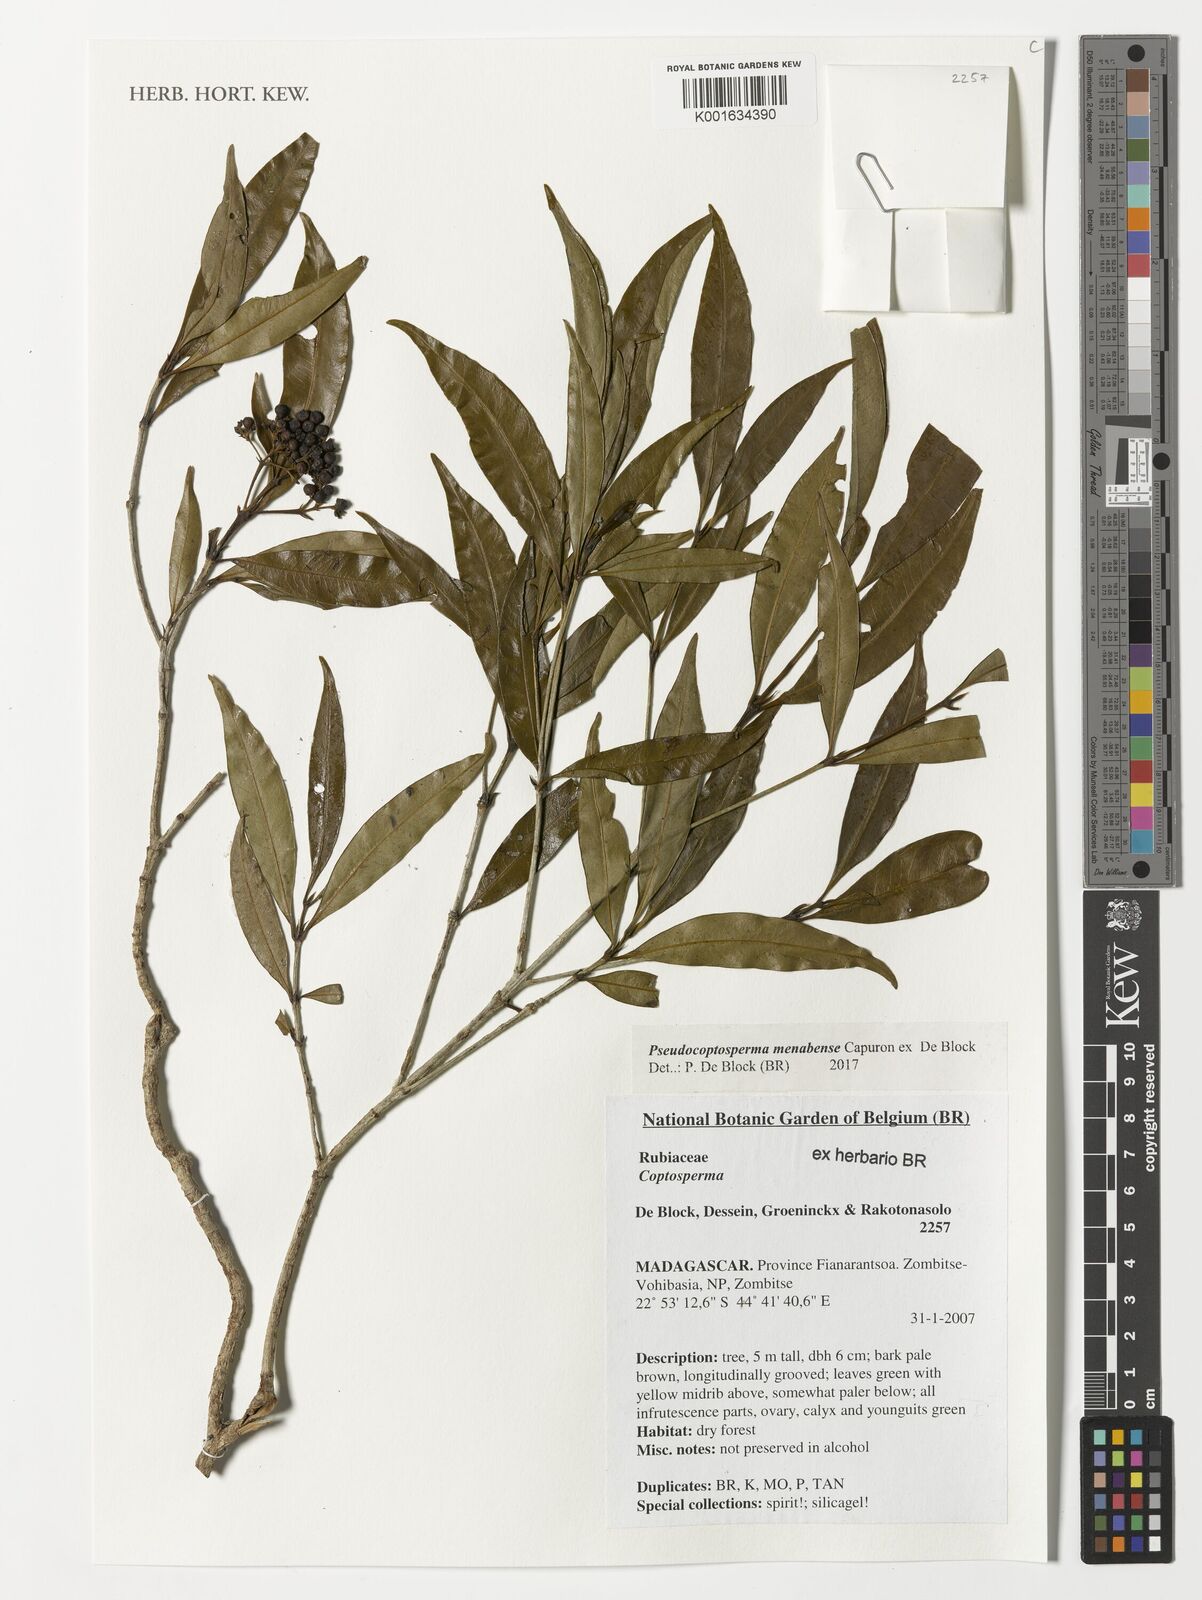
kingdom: Plantae
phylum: Tracheophyta
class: Magnoliopsida
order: Gentianales
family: Rubiaceae
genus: Pseudocoptosperma
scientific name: Pseudocoptosperma menabense
